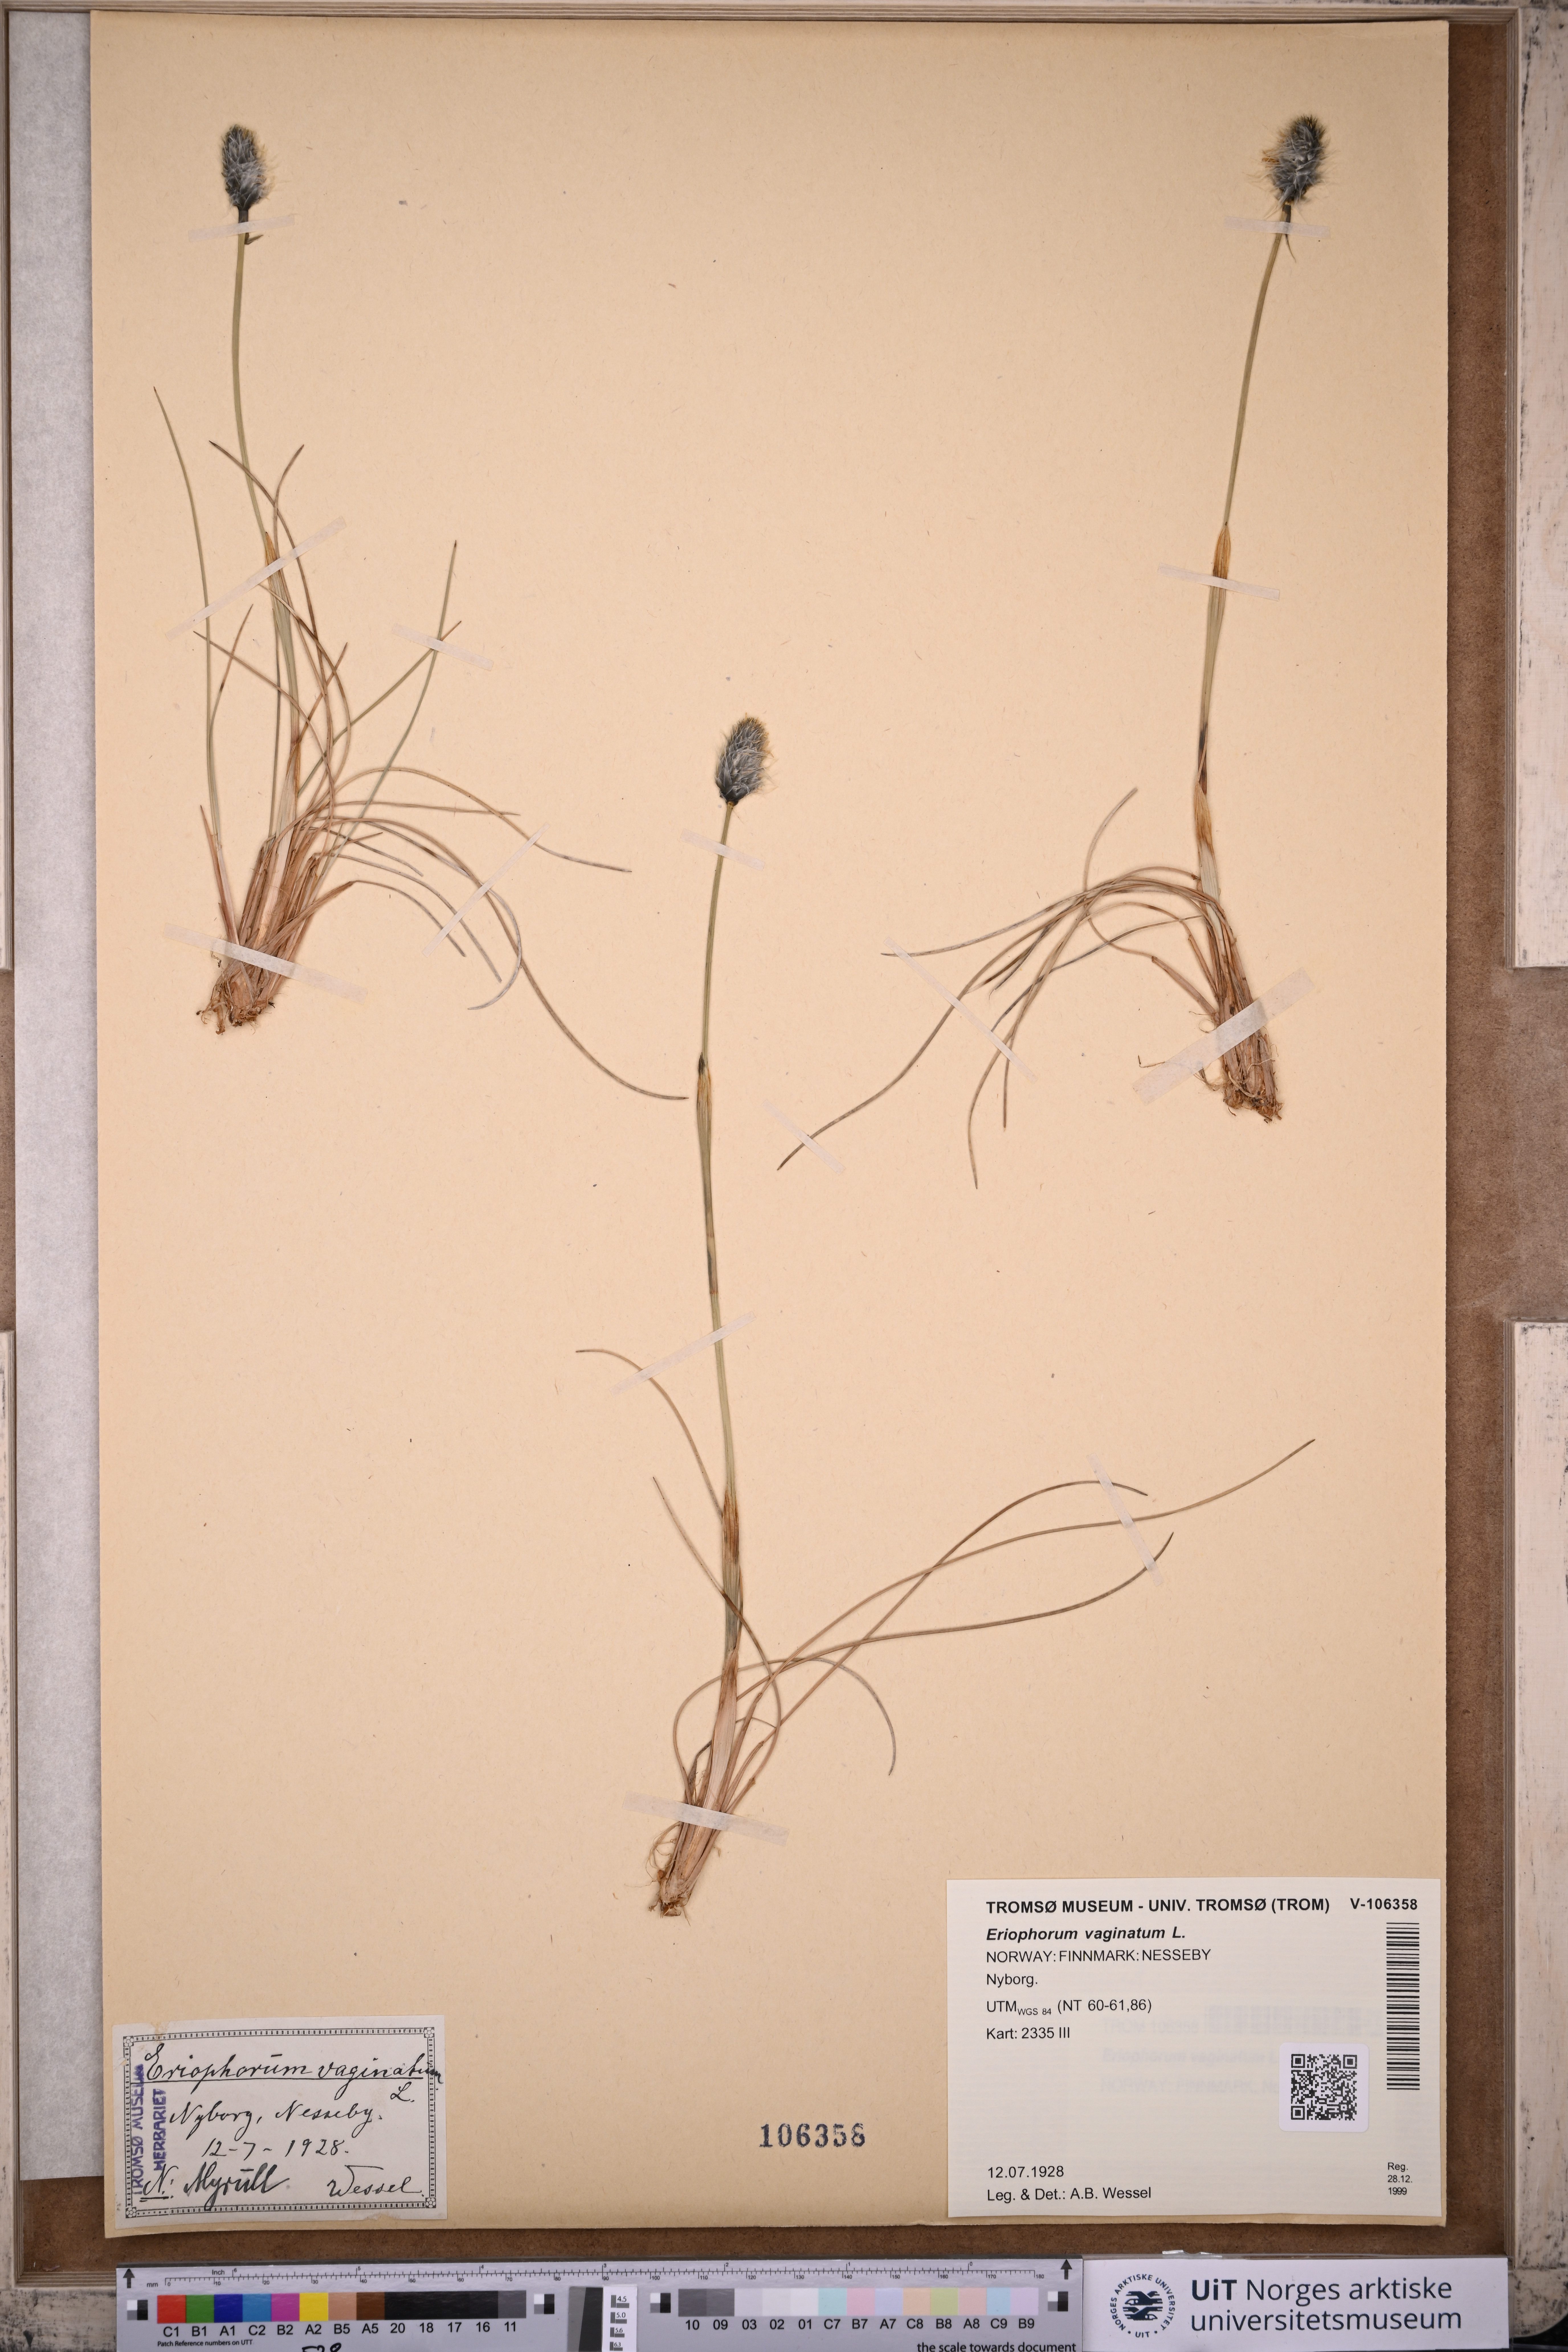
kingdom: Plantae
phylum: Tracheophyta
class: Liliopsida
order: Poales
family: Cyperaceae
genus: Eriophorum
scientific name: Eriophorum vaginatum
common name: Hare's-tail cottongrass
